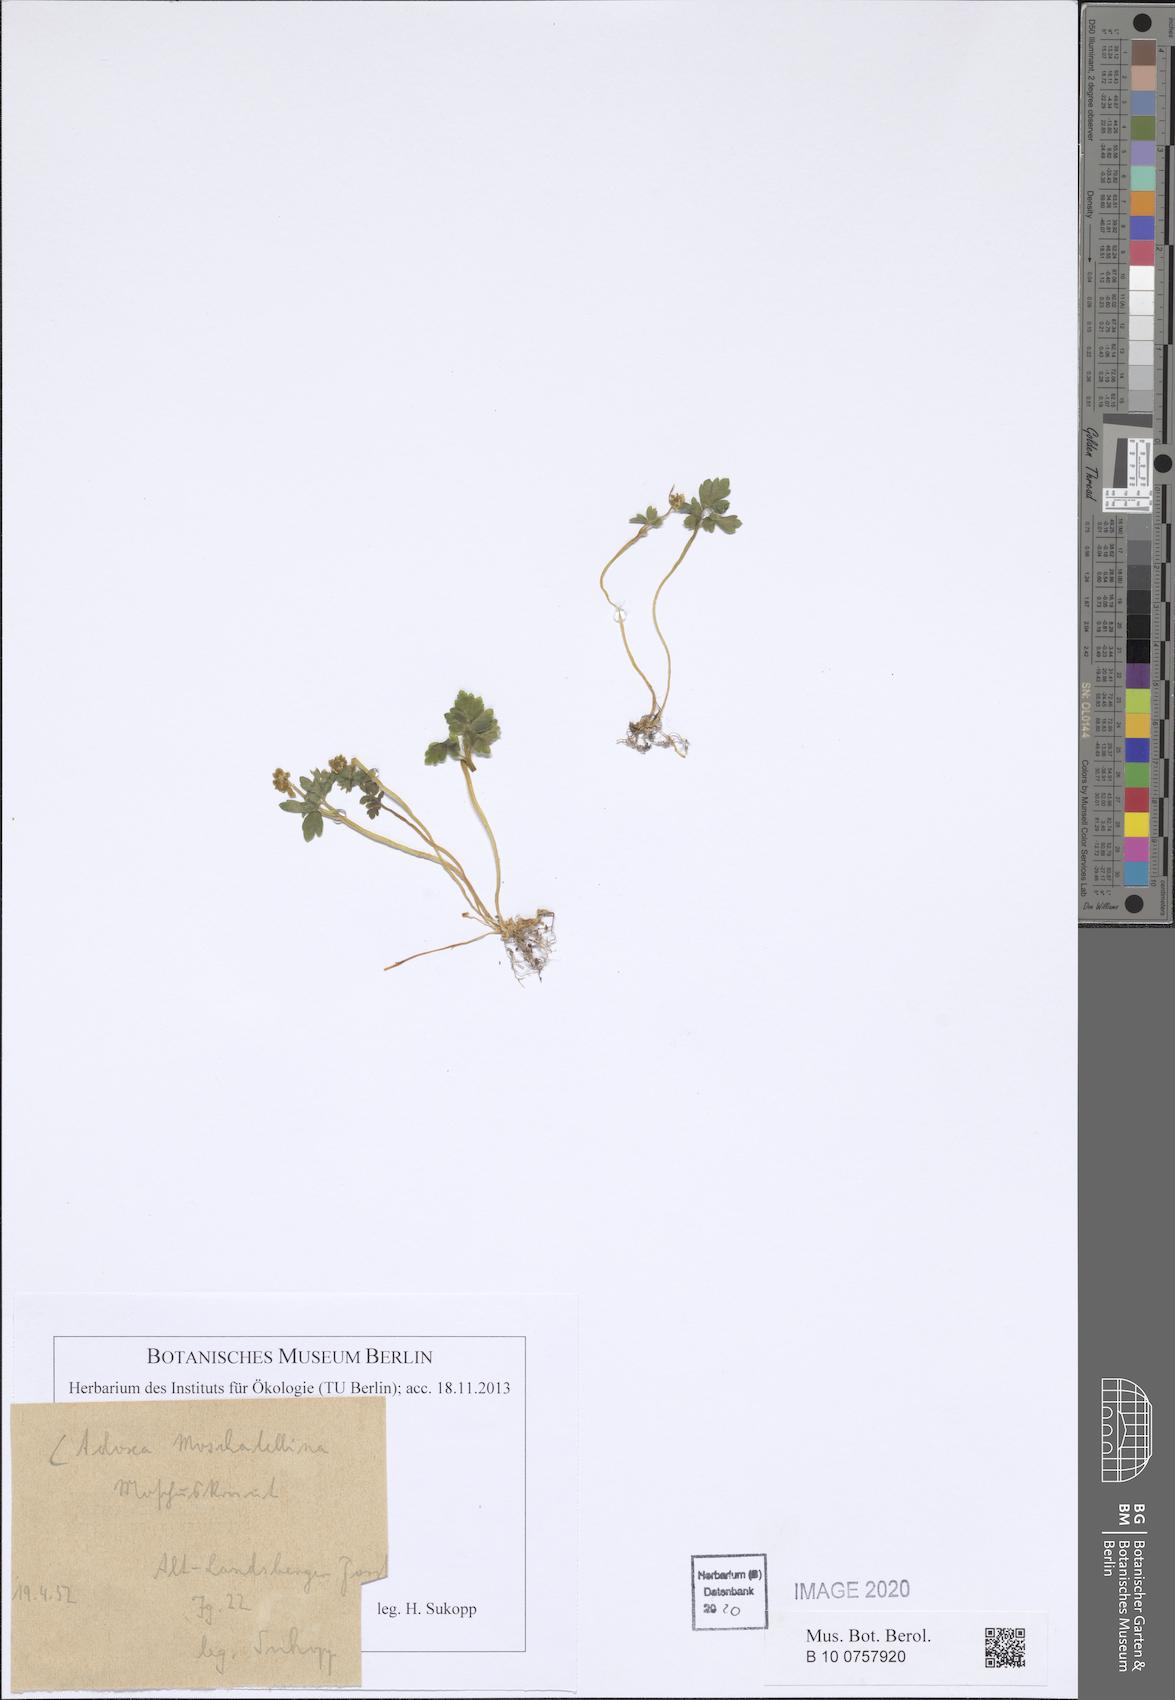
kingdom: Plantae
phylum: Tracheophyta
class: Magnoliopsida
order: Dipsacales
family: Viburnaceae
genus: Adoxa
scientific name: Adoxa moschatellina
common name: Moschatel
